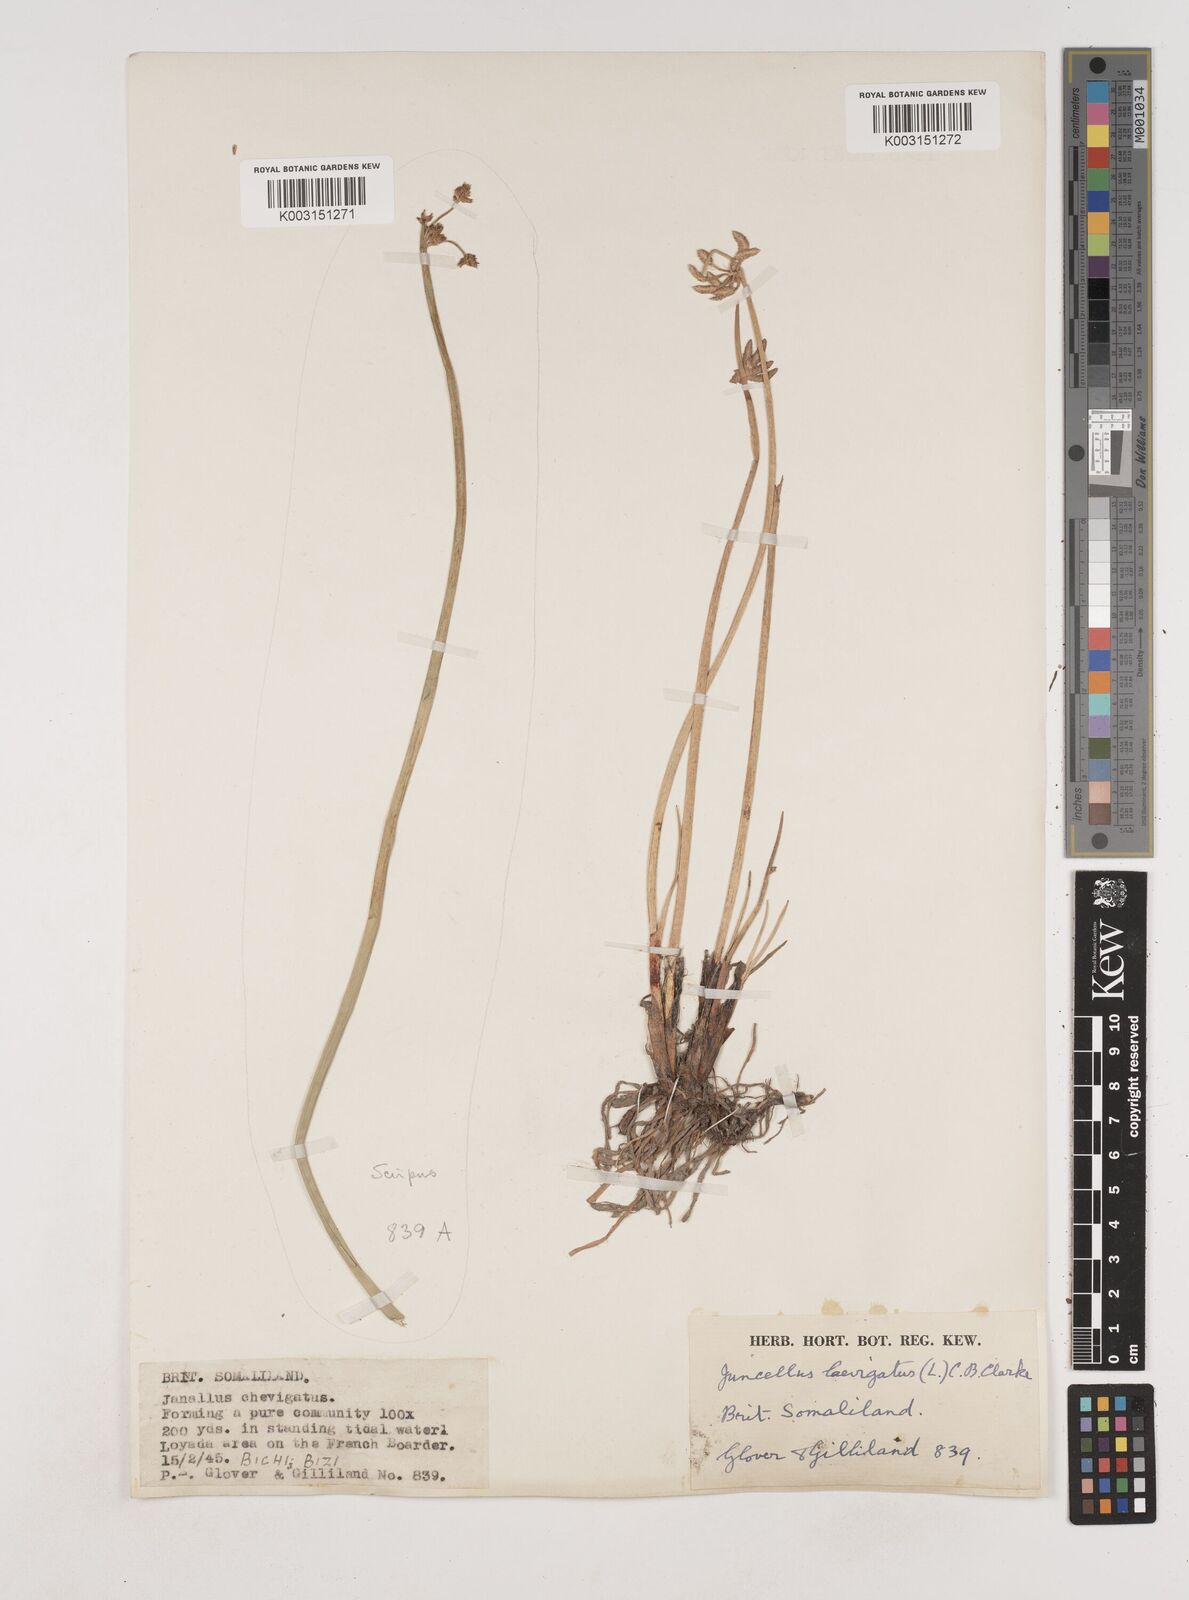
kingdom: Plantae
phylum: Tracheophyta
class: Liliopsida
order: Poales
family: Cyperaceae
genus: Cyperus
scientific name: Cyperus laevigatus
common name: Smooth flat sedge
